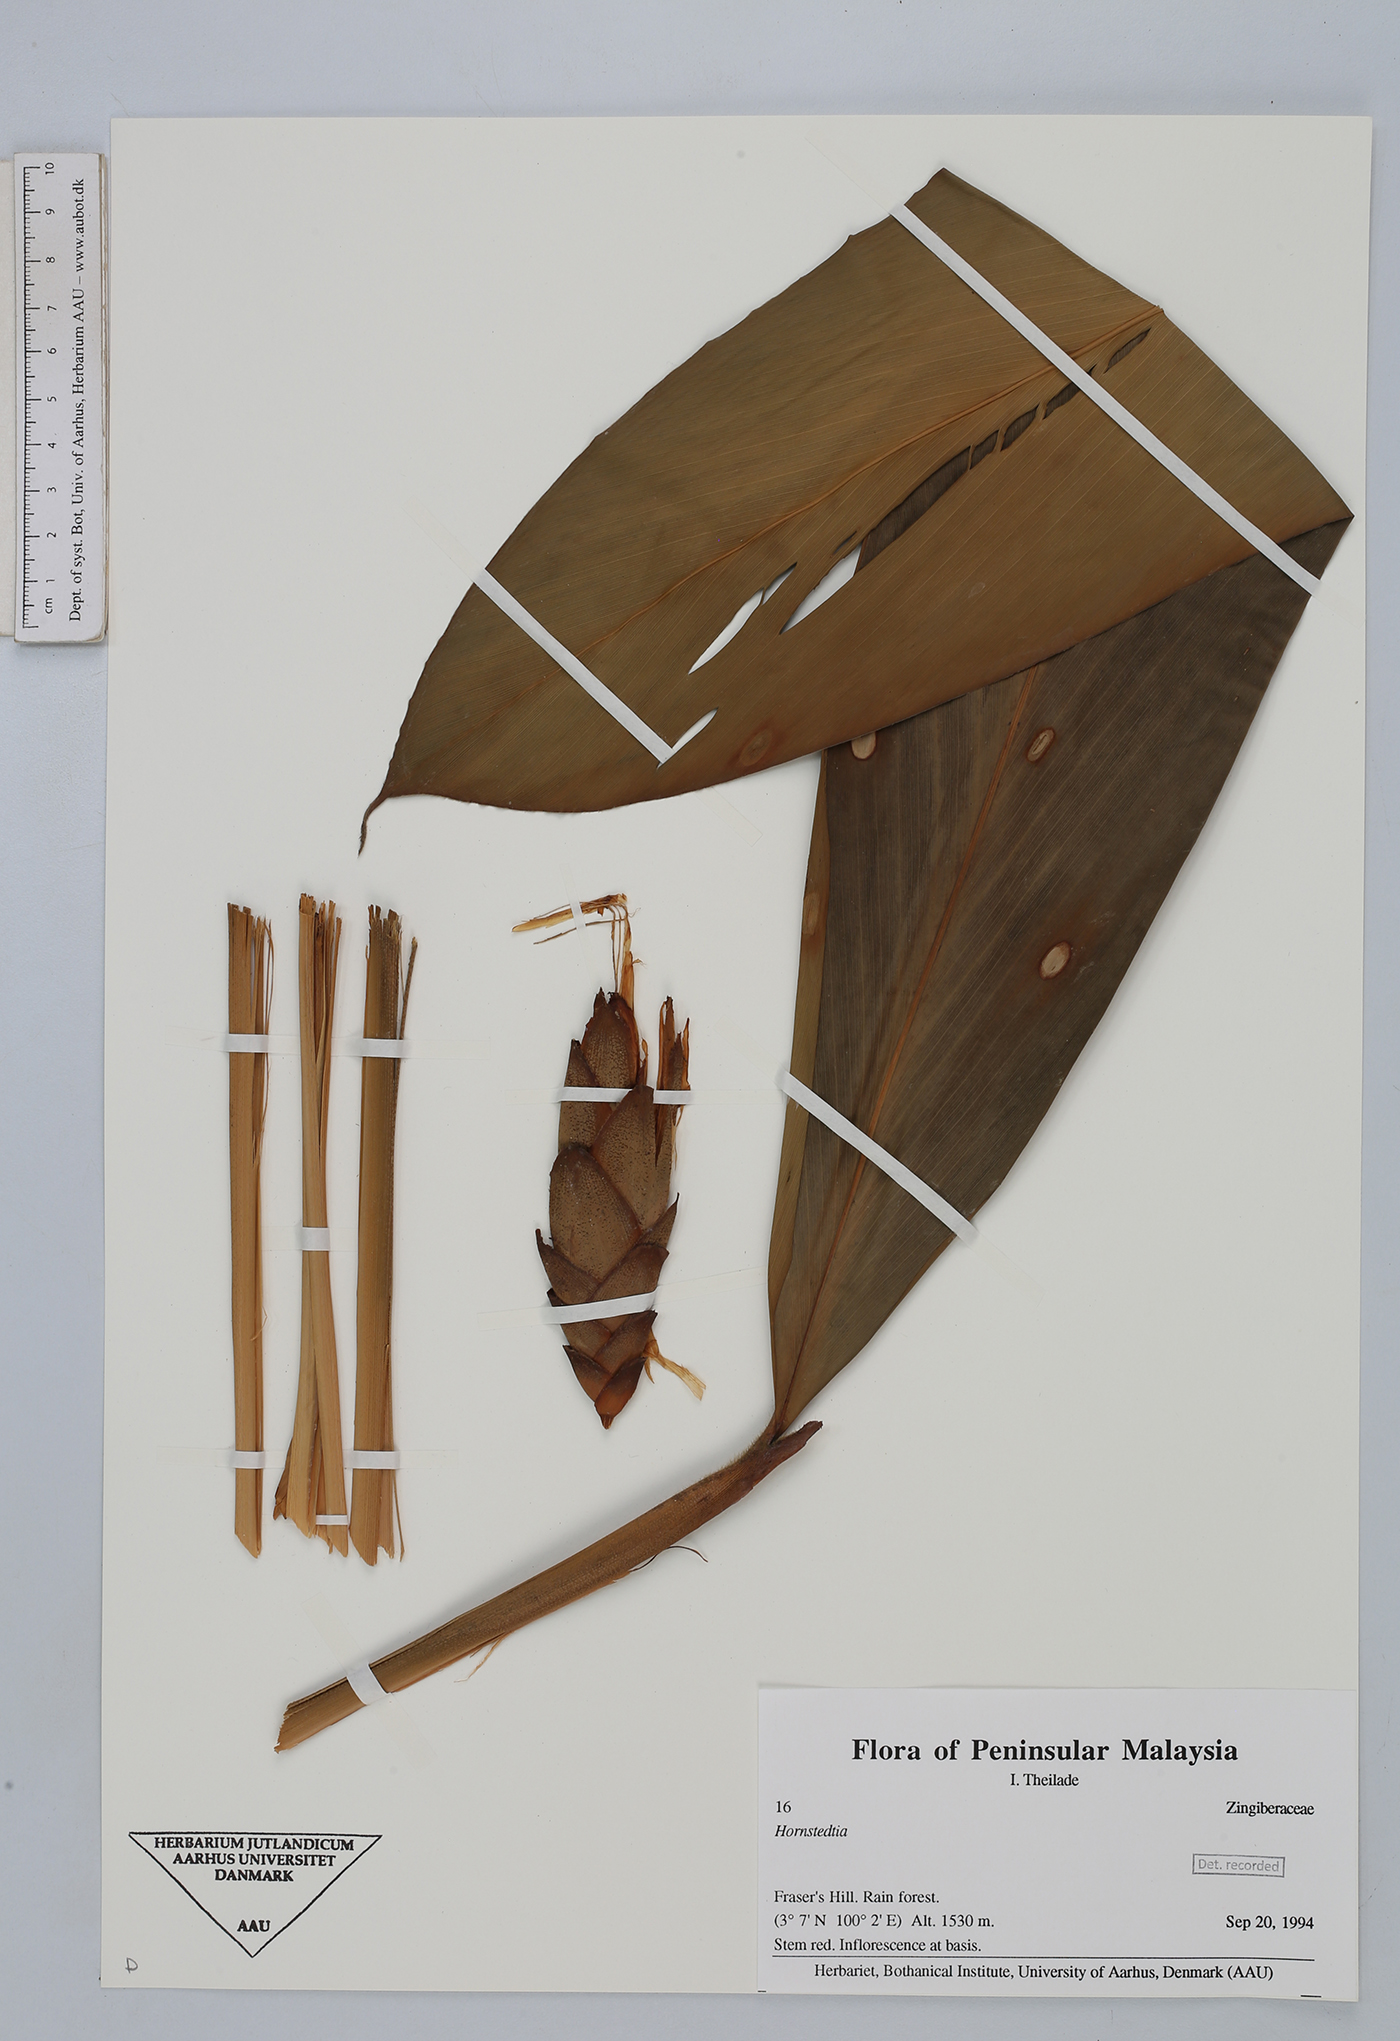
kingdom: Plantae
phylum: Tracheophyta
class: Liliopsida
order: Zingiberales
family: Zingiberaceae
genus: Hornstedtia
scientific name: Hornstedtia
